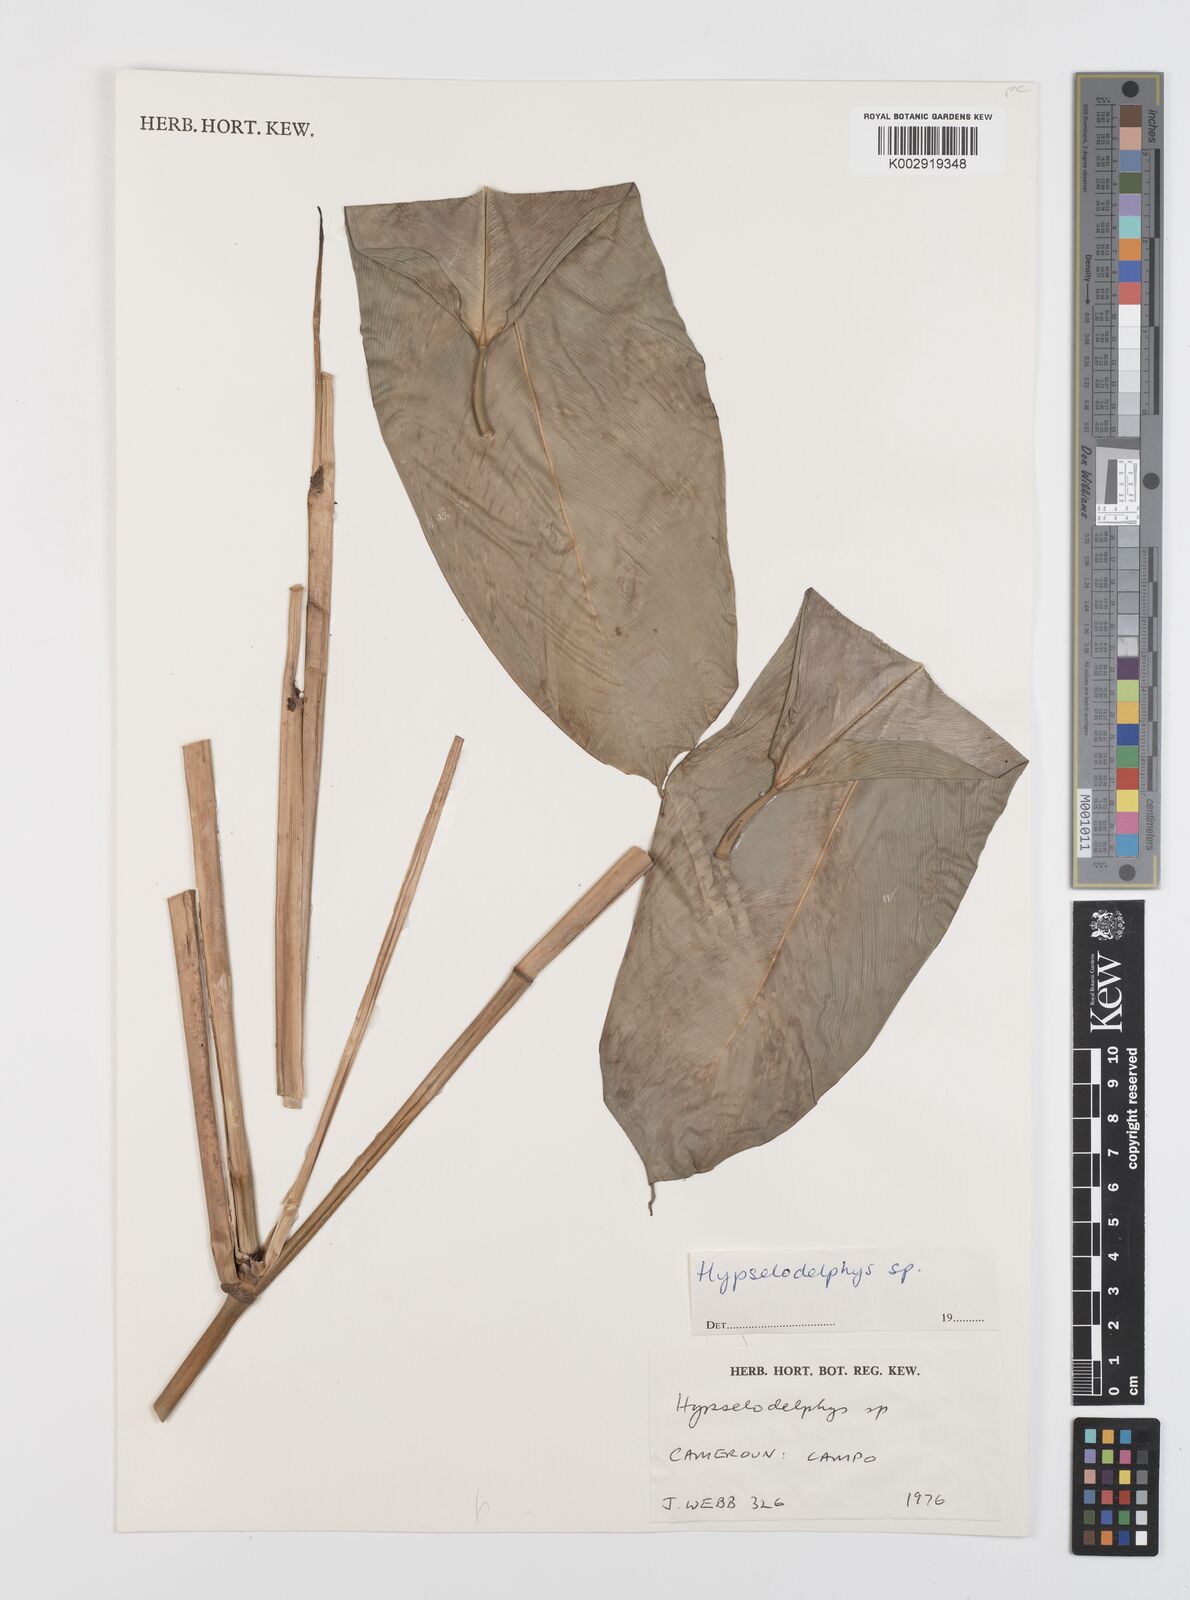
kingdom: Plantae
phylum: Tracheophyta
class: Liliopsida
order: Zingiberales
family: Marantaceae
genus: Hypselodelphys
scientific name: Hypselodelphys
